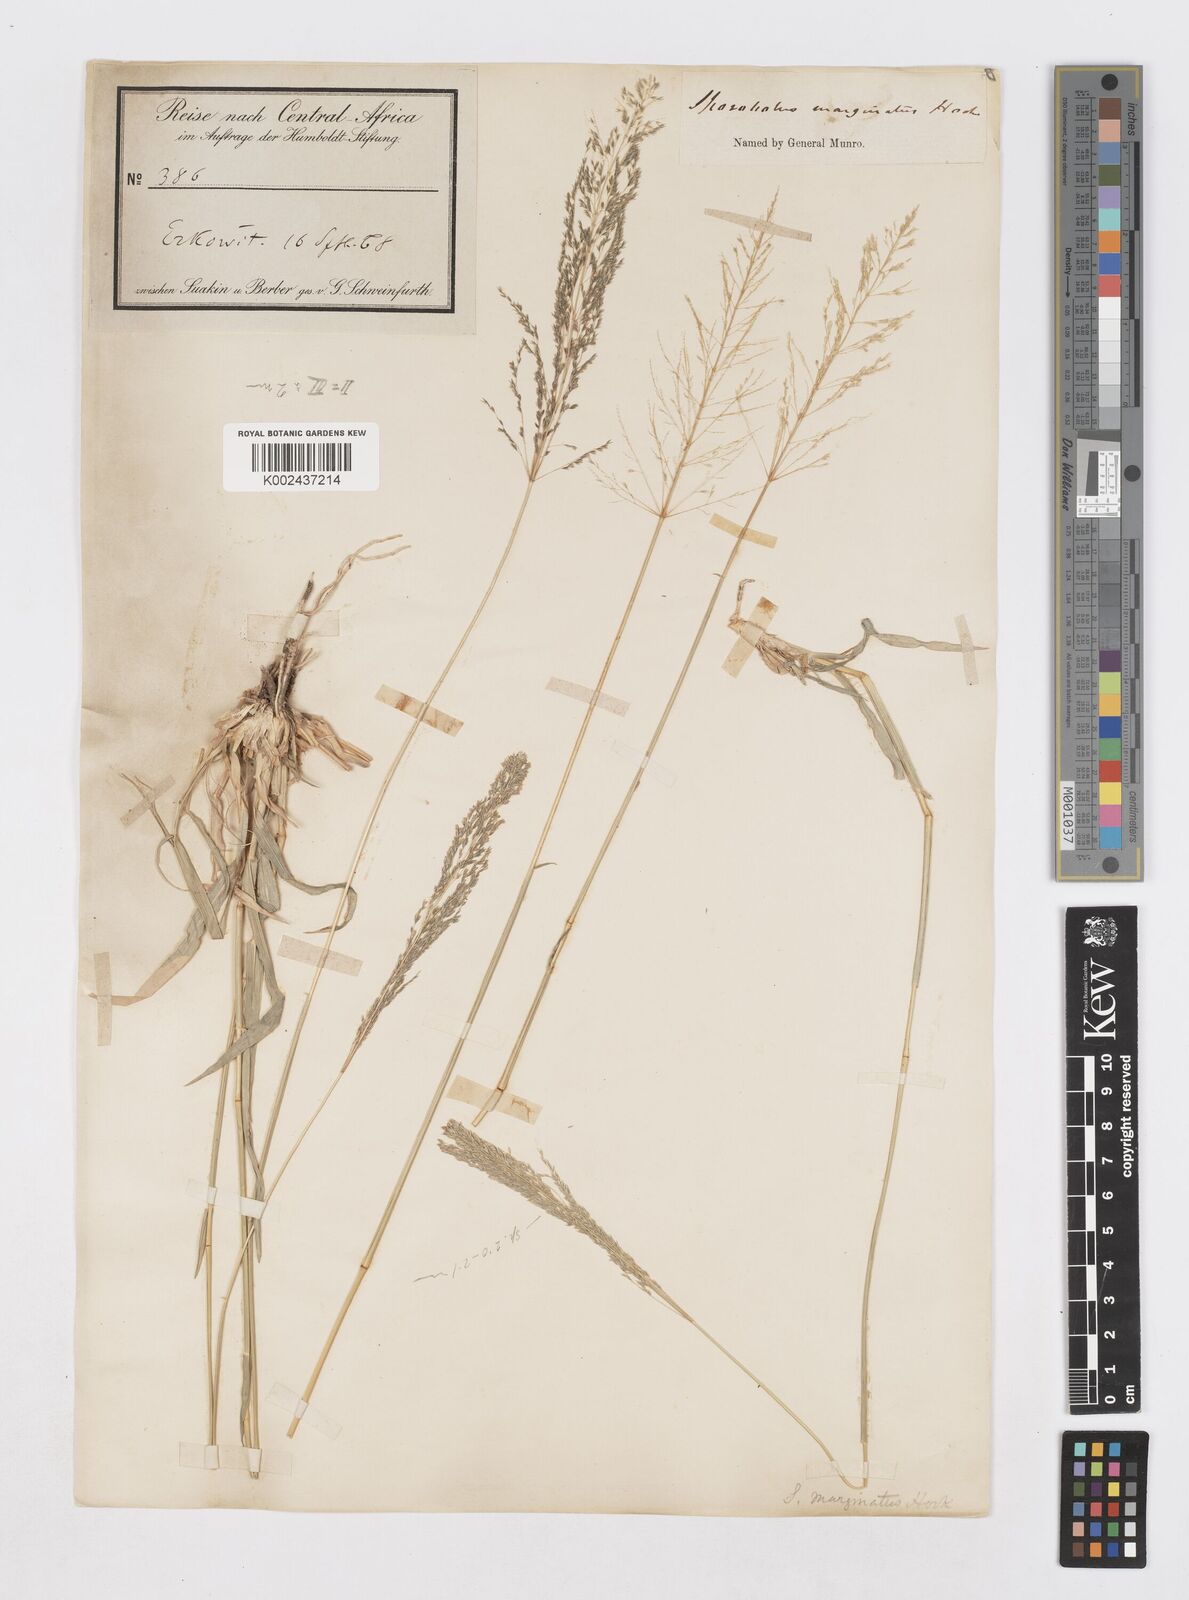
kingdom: Plantae
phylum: Tracheophyta
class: Liliopsida
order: Poales
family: Poaceae
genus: Sporobolus
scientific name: Sporobolus ioclados
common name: Pan dropseed
